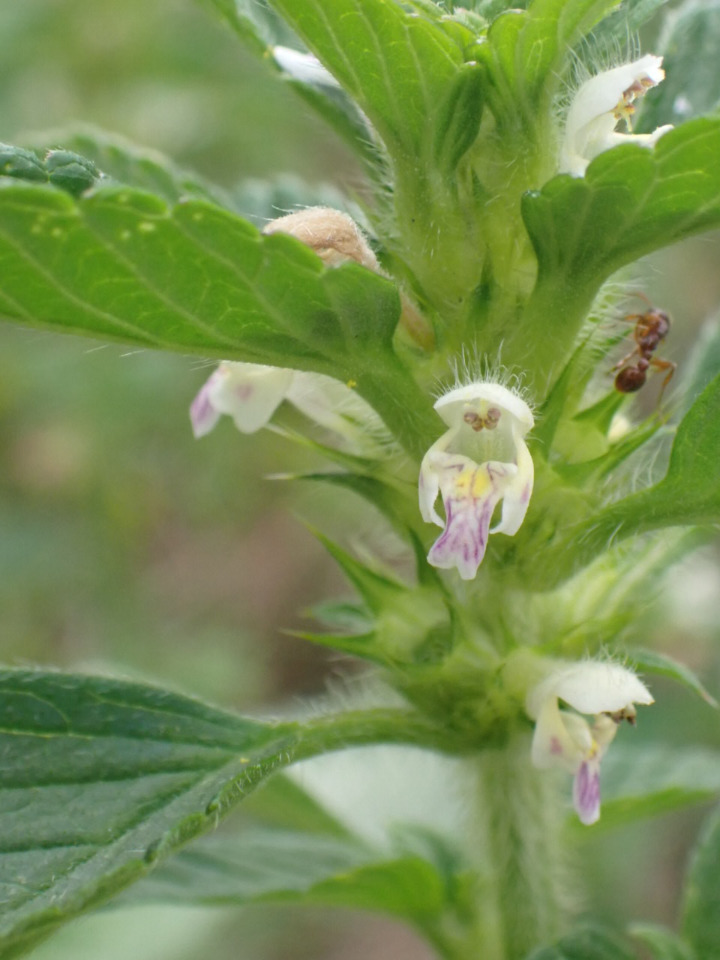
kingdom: Plantae
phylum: Tracheophyta
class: Magnoliopsida
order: Lamiales
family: Lamiaceae
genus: Galeopsis
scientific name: Galeopsis bifida
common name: Skov-hanekro
